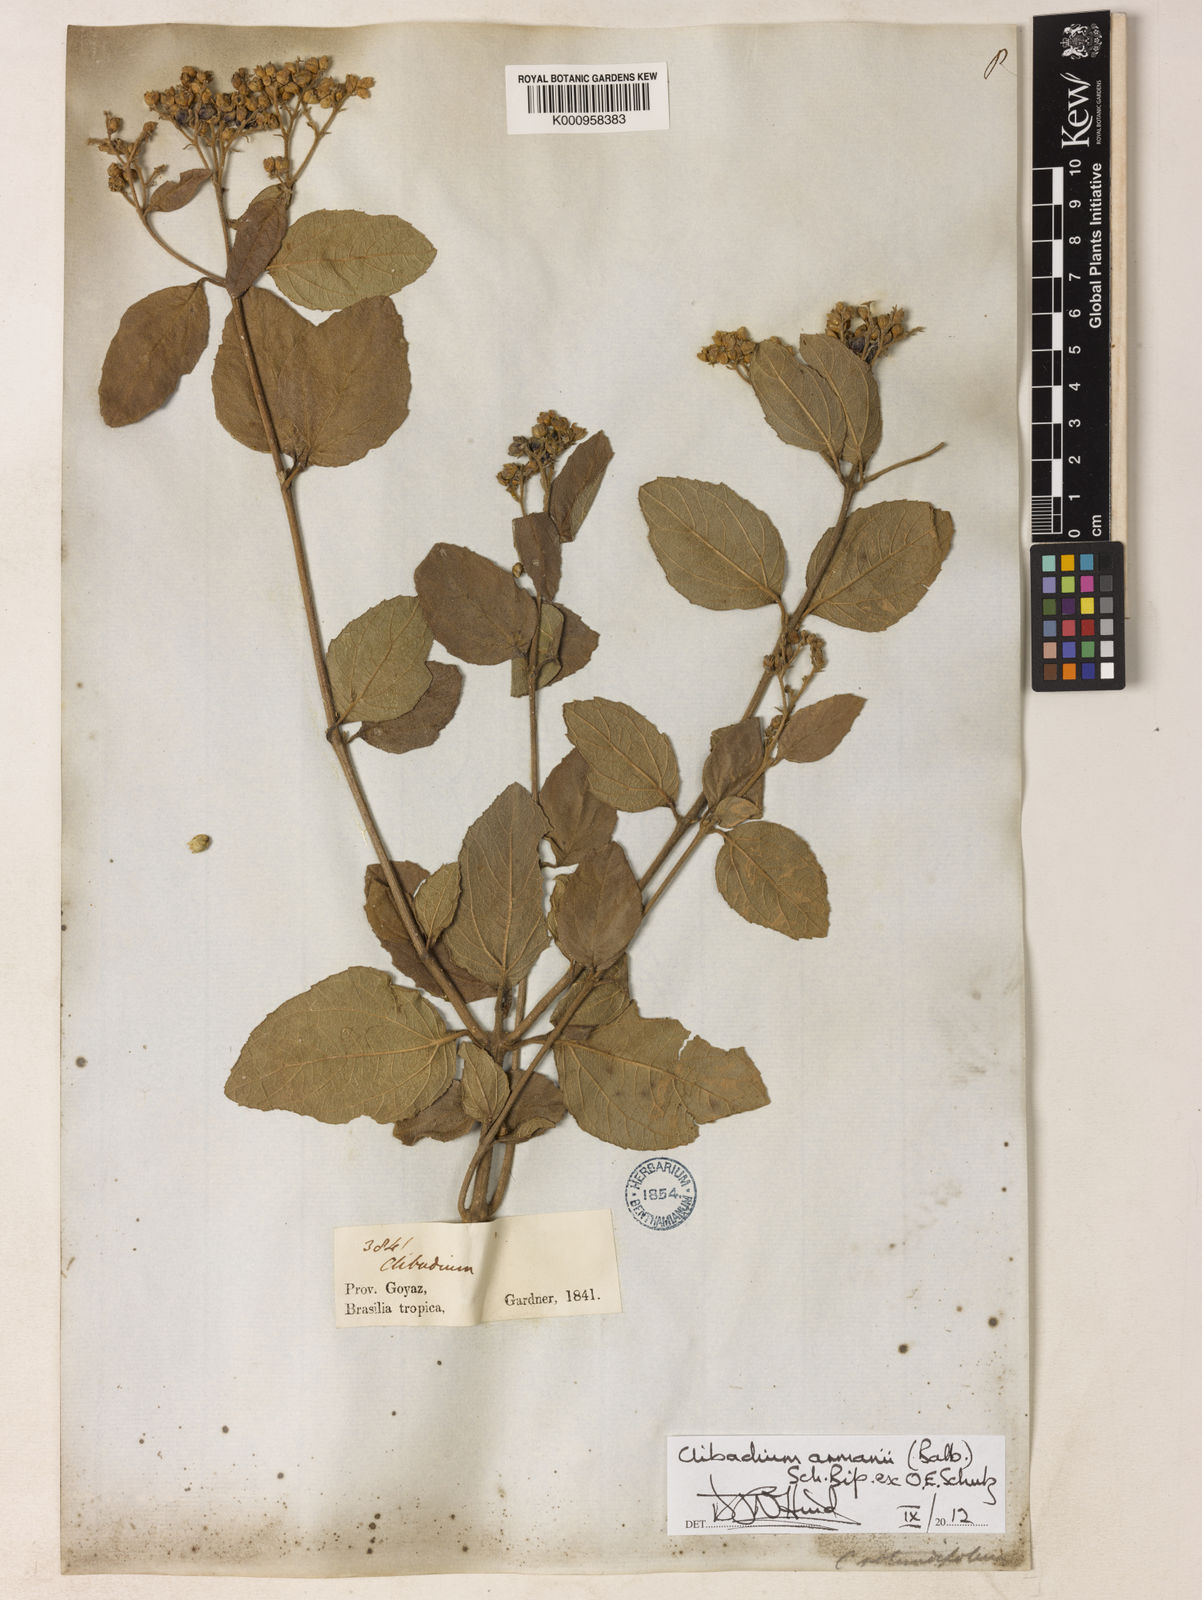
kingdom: Plantae
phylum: Tracheophyta
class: Magnoliopsida
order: Asterales
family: Asteraceae
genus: Clibadium
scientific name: Clibadium armanii
